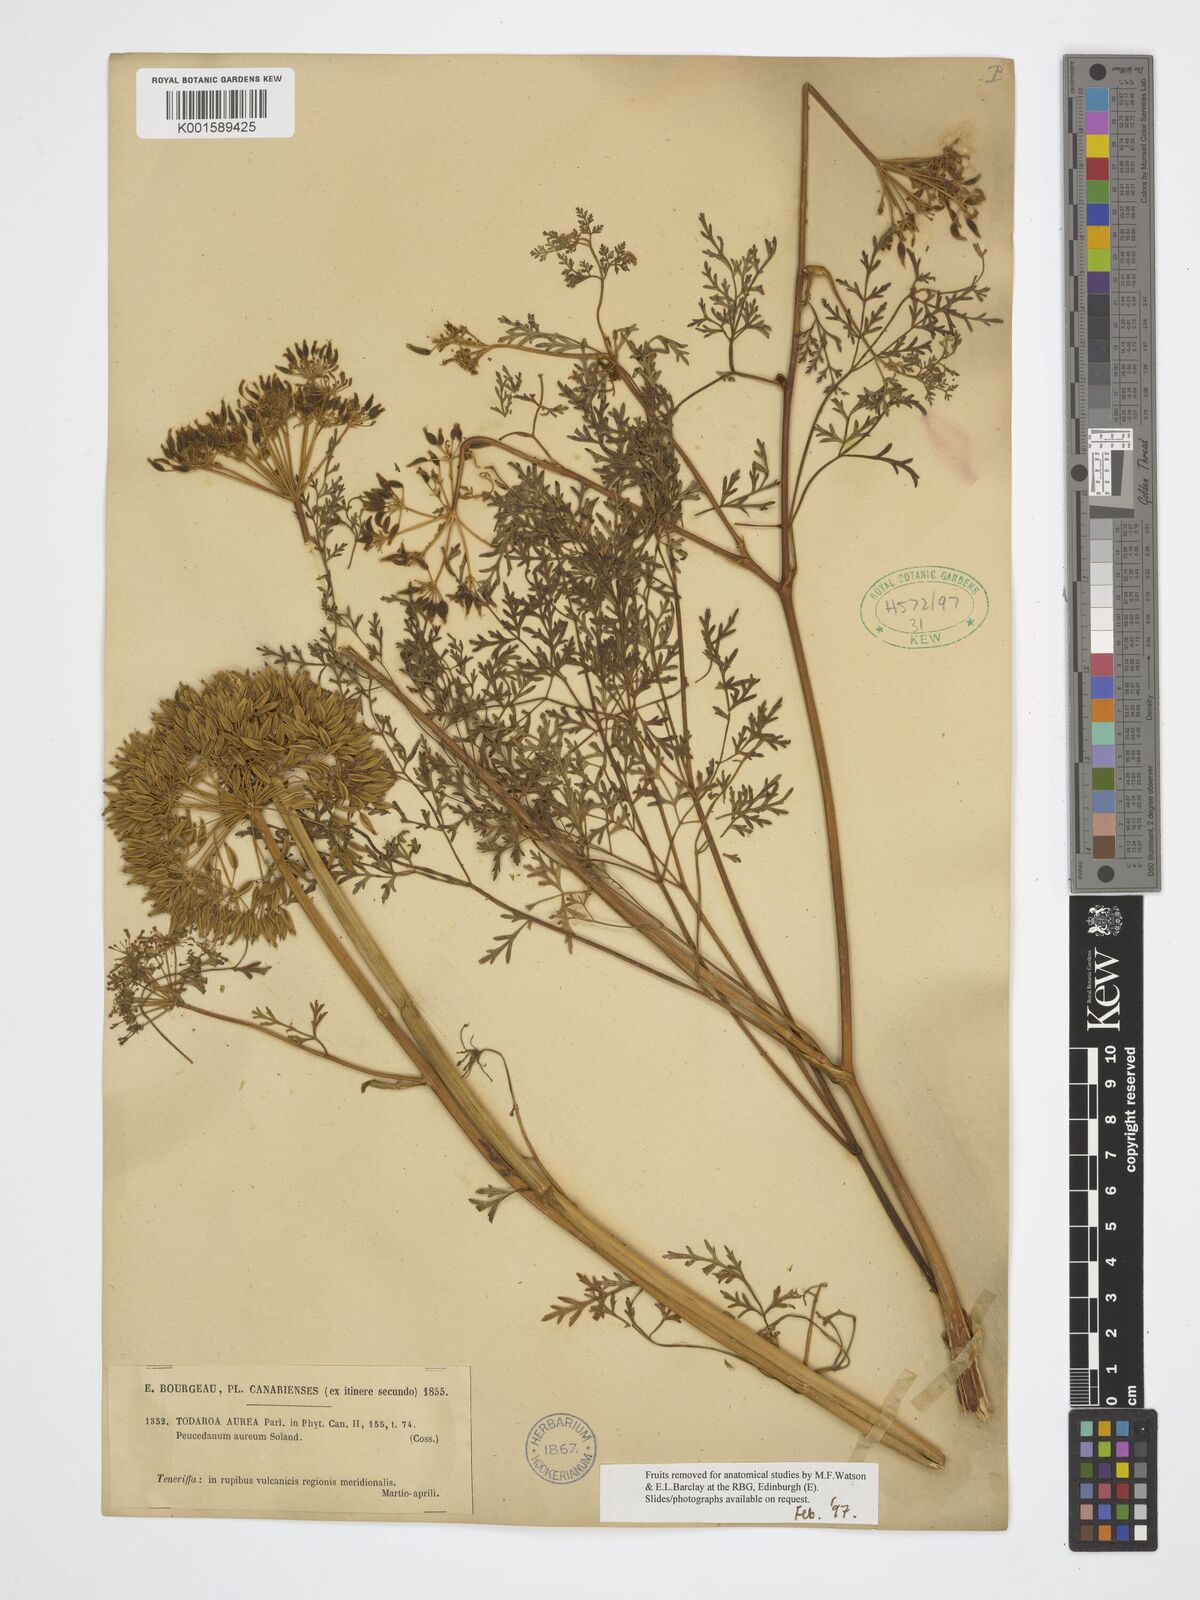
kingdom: Plantae
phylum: Tracheophyta
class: Magnoliopsida
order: Apiales
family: Apiaceae
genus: Todaroa
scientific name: Todaroa aurea
